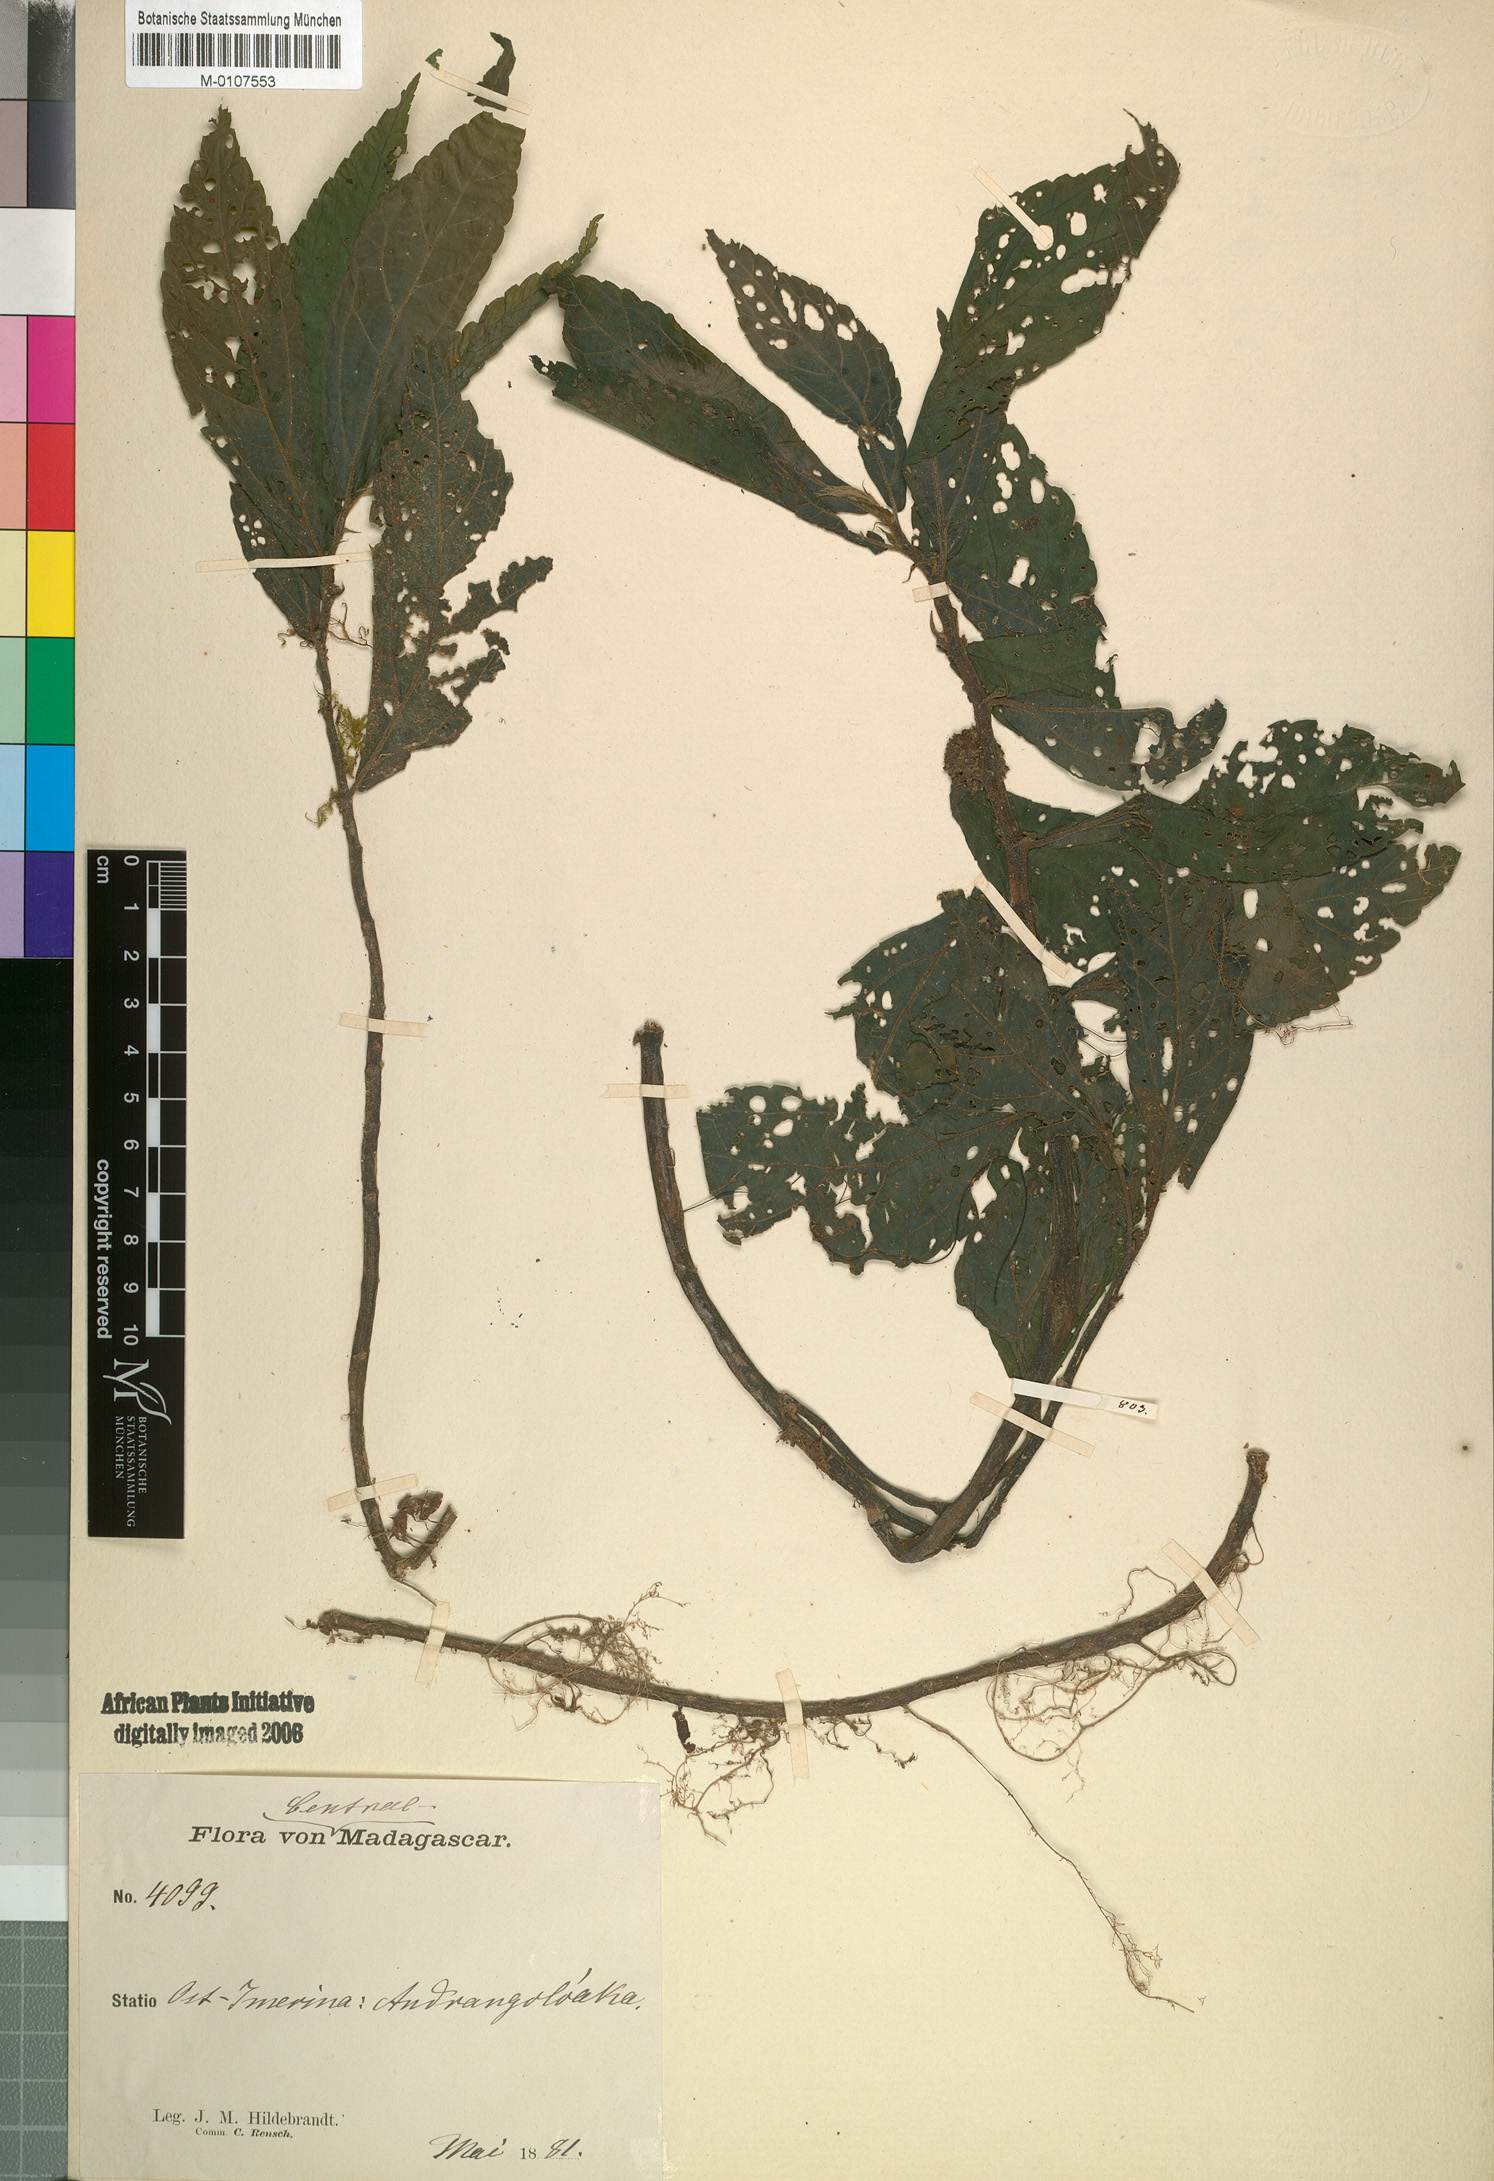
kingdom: Plantae
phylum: Tracheophyta
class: Magnoliopsida
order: Rosales
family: Urticaceae
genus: Elatostema
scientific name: Elatostema goudotianum
